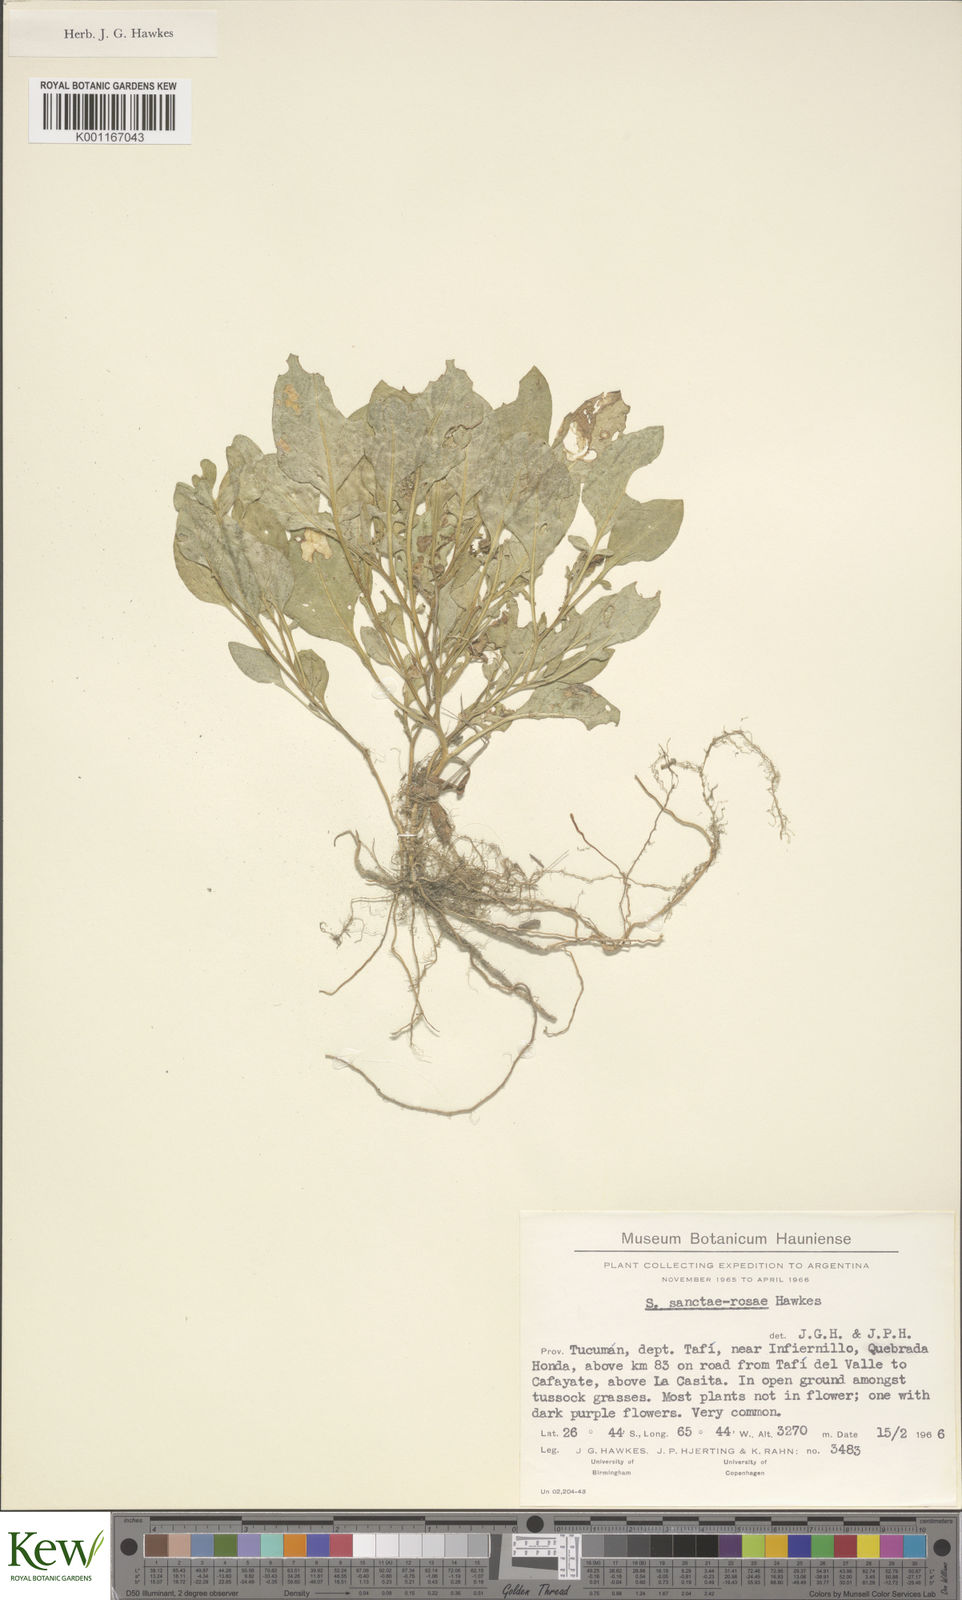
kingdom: Plantae
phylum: Tracheophyta
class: Magnoliopsida
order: Solanales
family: Solanaceae
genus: Solanum
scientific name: Solanum boliviense
